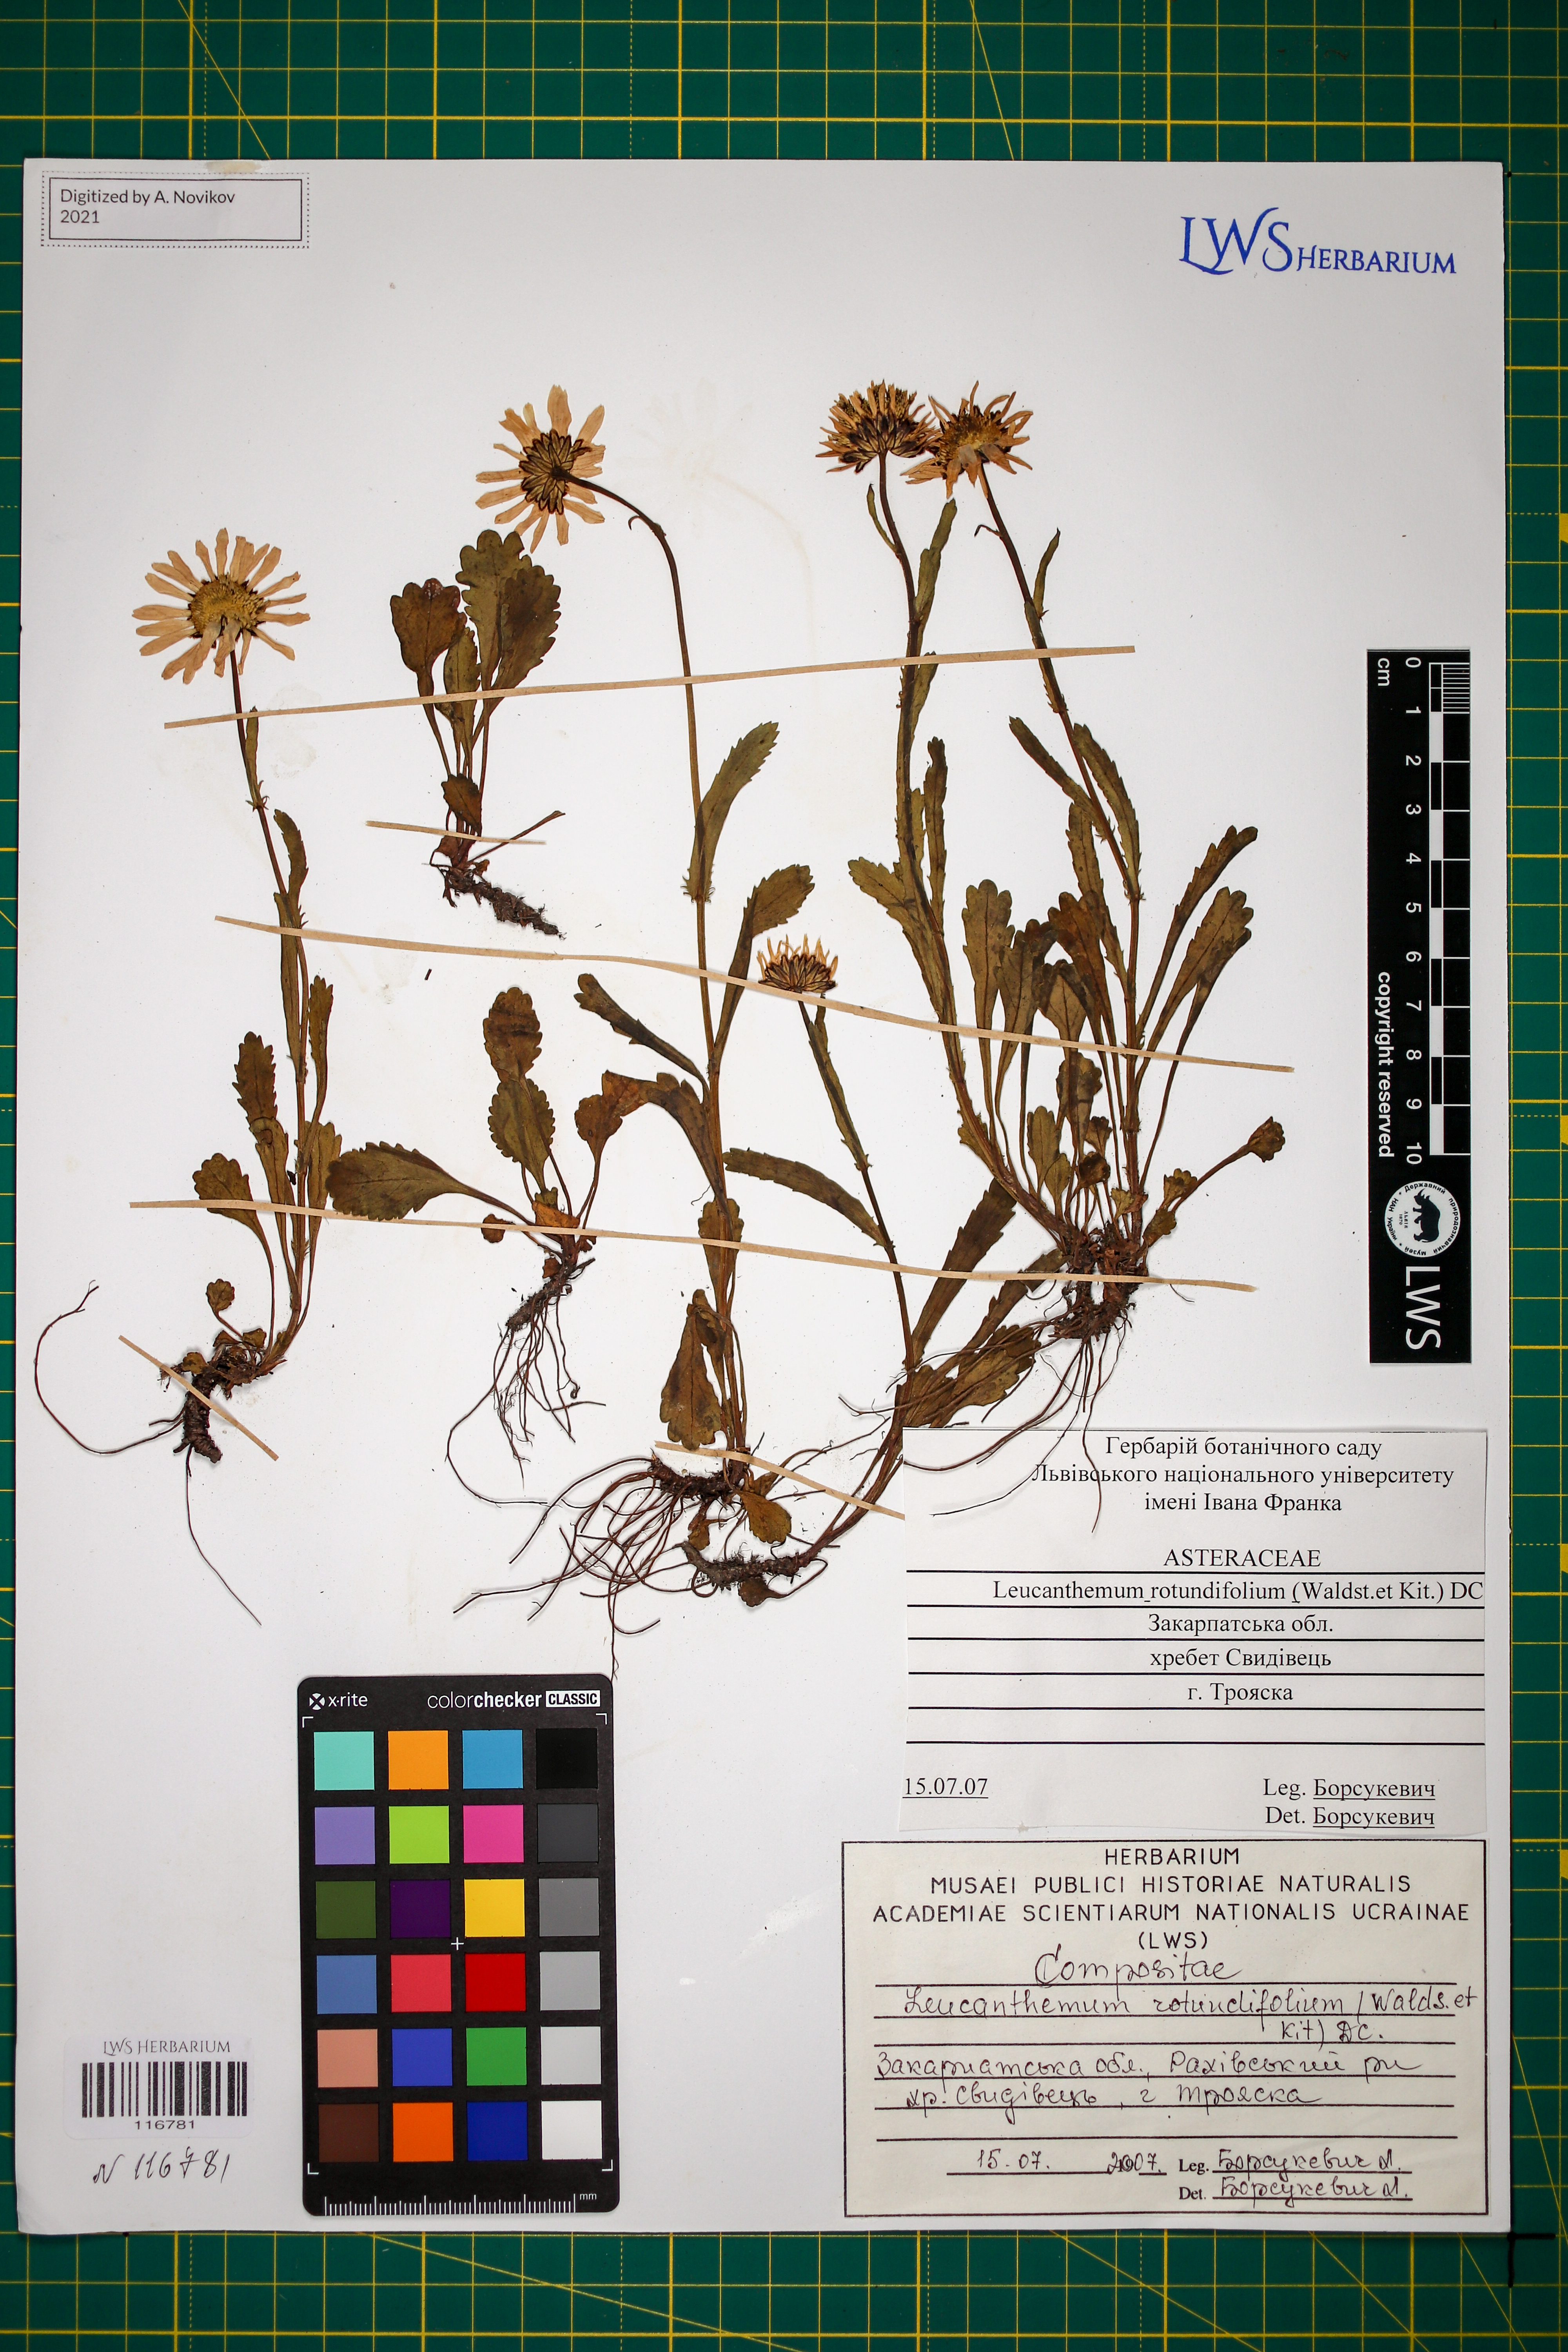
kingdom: Plantae
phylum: Tracheophyta
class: Magnoliopsida
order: Asterales
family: Asteraceae
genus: Leucanthemum
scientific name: Leucanthemum rotundifolium
